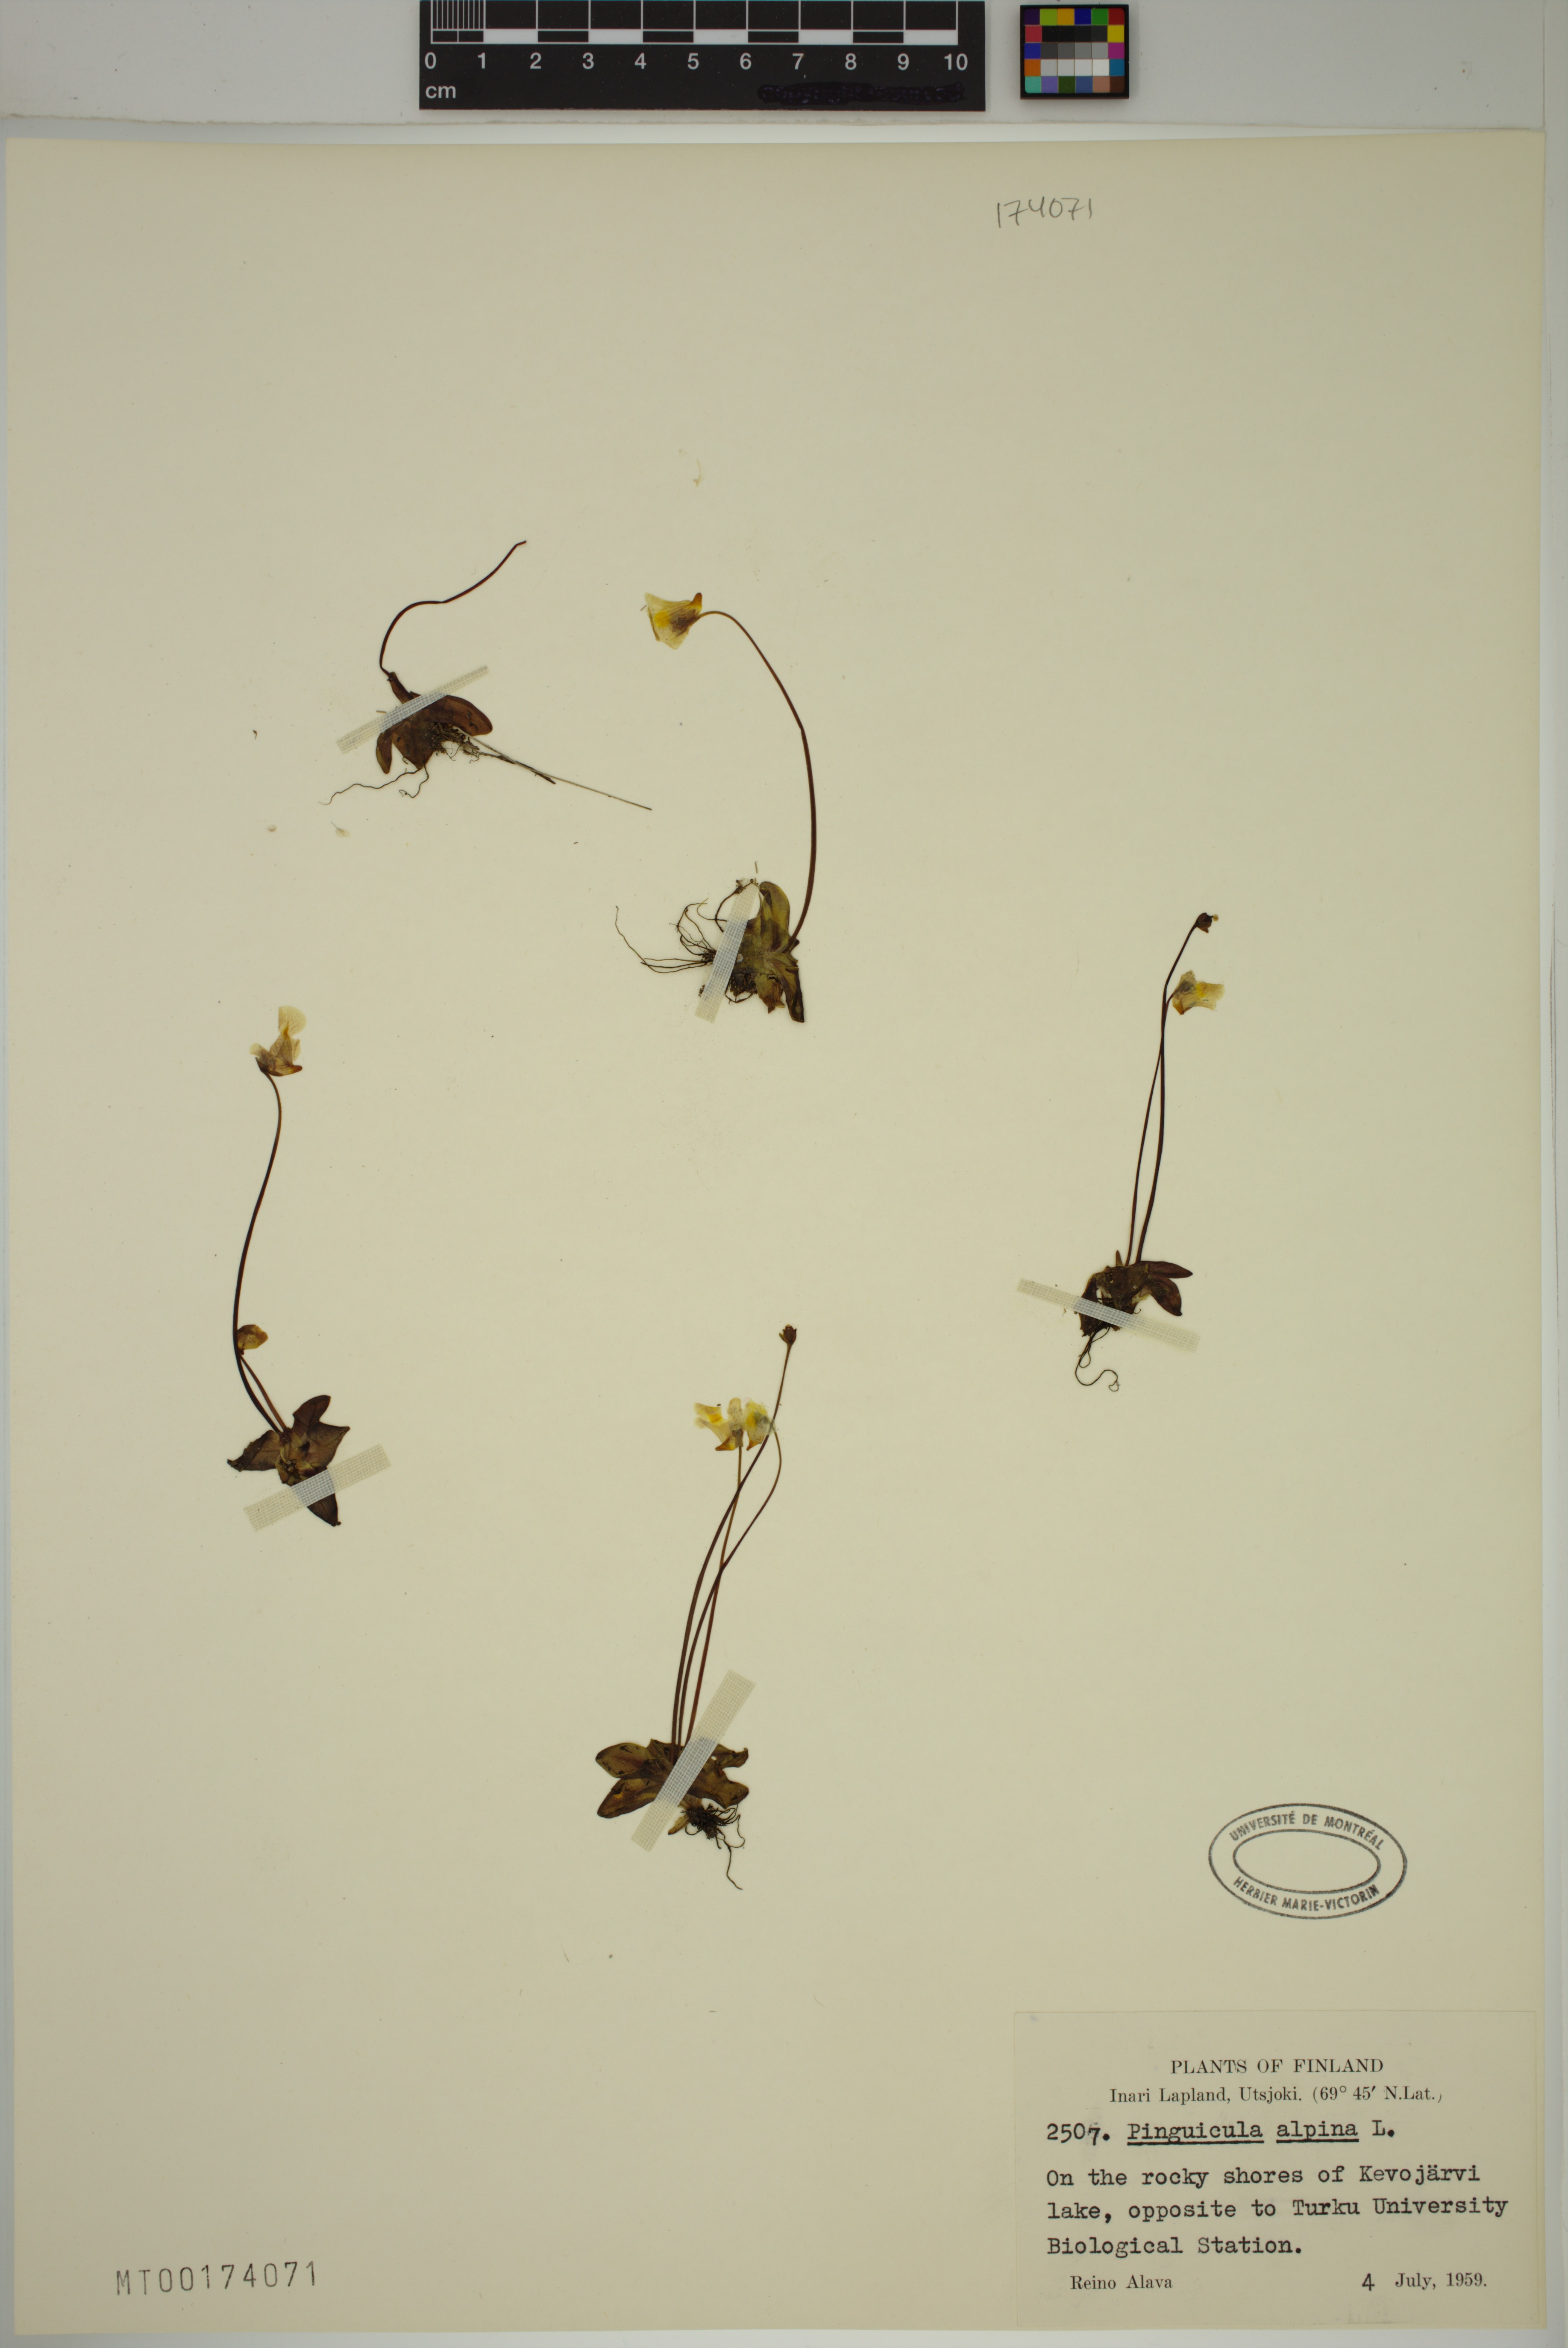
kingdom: Plantae
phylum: Tracheophyta
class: Magnoliopsida
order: Lamiales
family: Lentibulariaceae
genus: Pinguicula
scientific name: Pinguicula alpina
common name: Alpine butterwort
